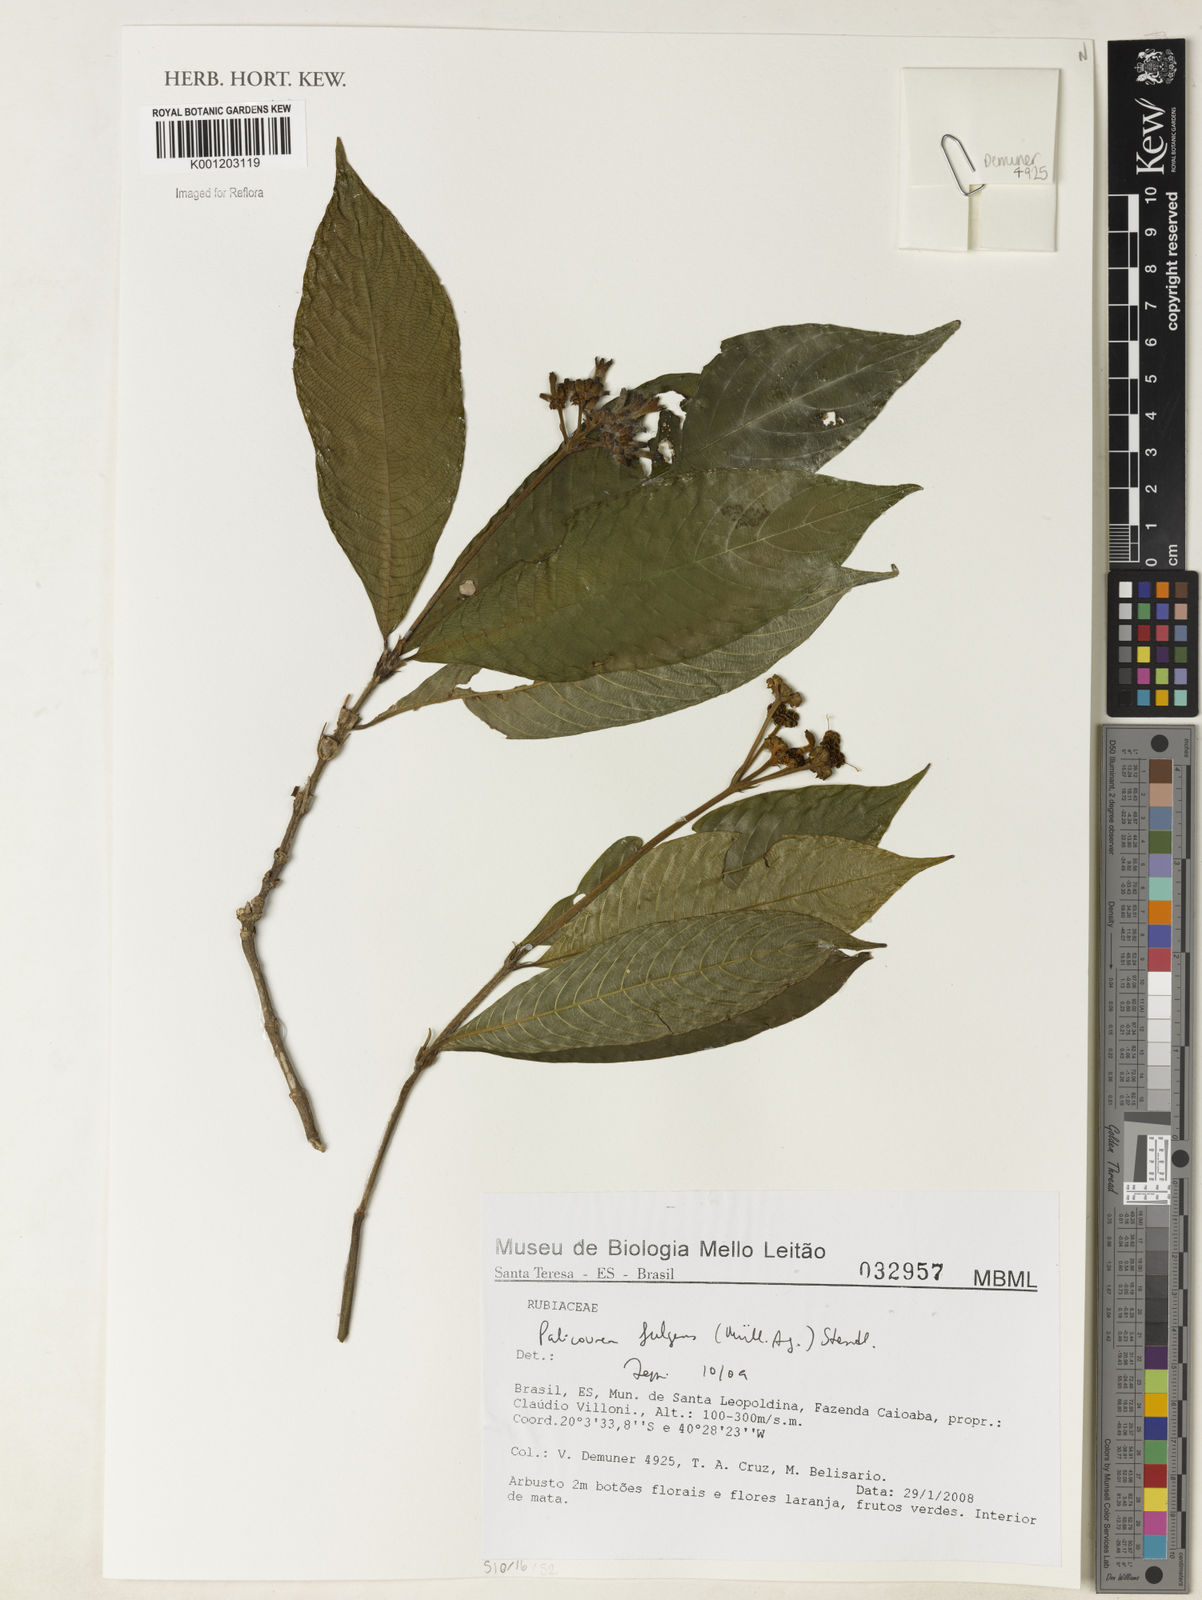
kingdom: Plantae
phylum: Tracheophyta
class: Magnoliopsida
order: Gentianales
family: Rubiaceae
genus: Palicourea
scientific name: Palicourea
